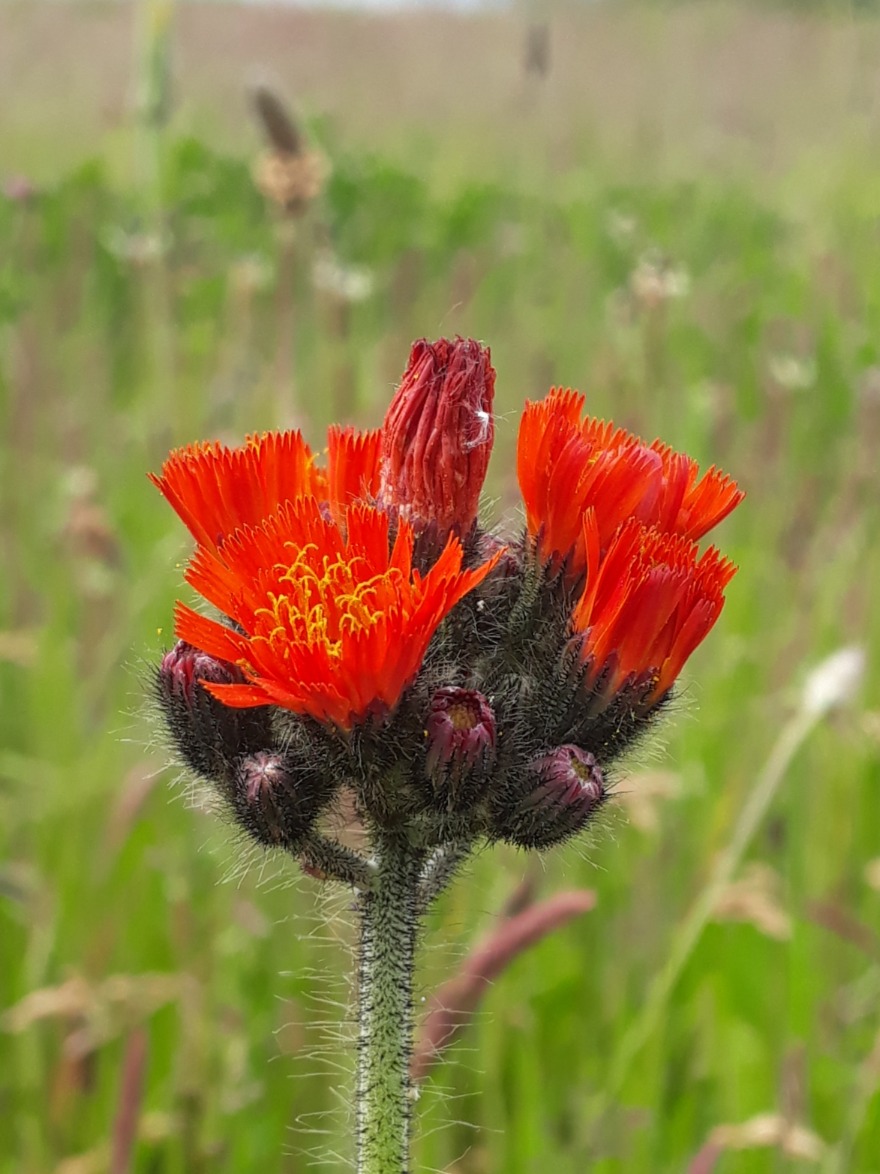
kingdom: Plantae
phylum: Tracheophyta
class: Magnoliopsida
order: Asterales
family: Asteraceae
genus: Pilosella
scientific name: Pilosella aurantiaca
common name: Pomerans-høgeurt
